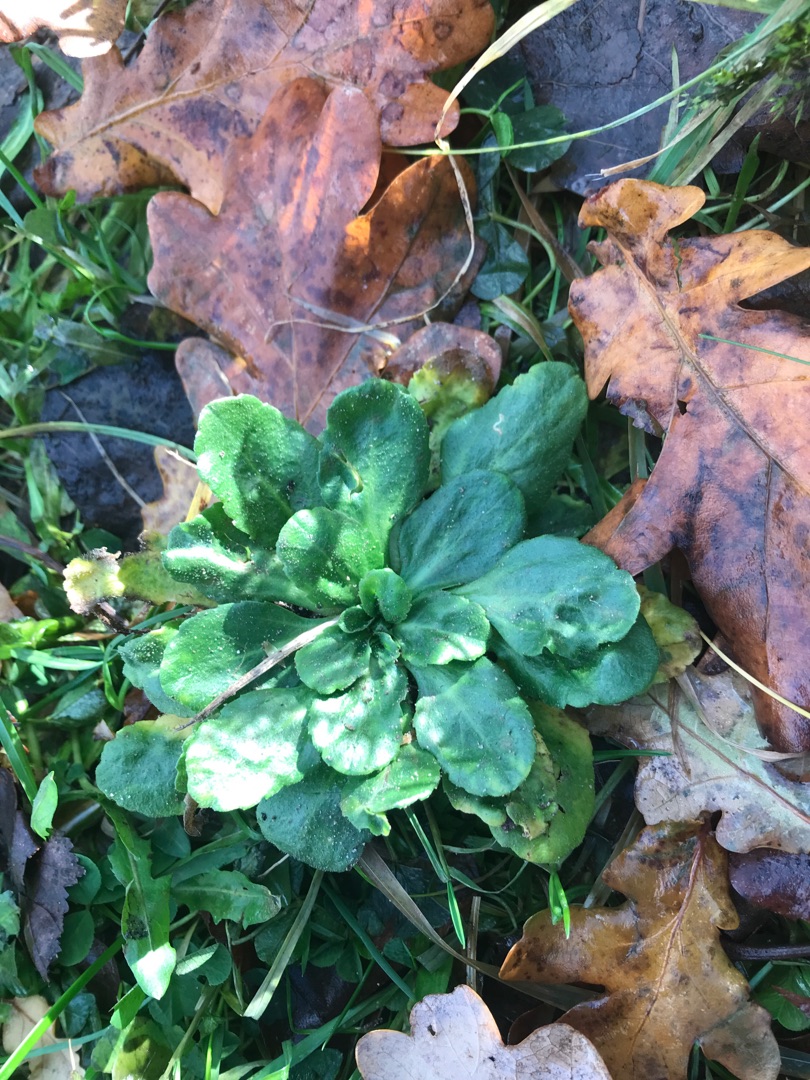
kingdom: Plantae
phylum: Tracheophyta
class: Magnoliopsida
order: Asterales
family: Asteraceae
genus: Bellis
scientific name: Bellis perennis
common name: Tusindfryd
